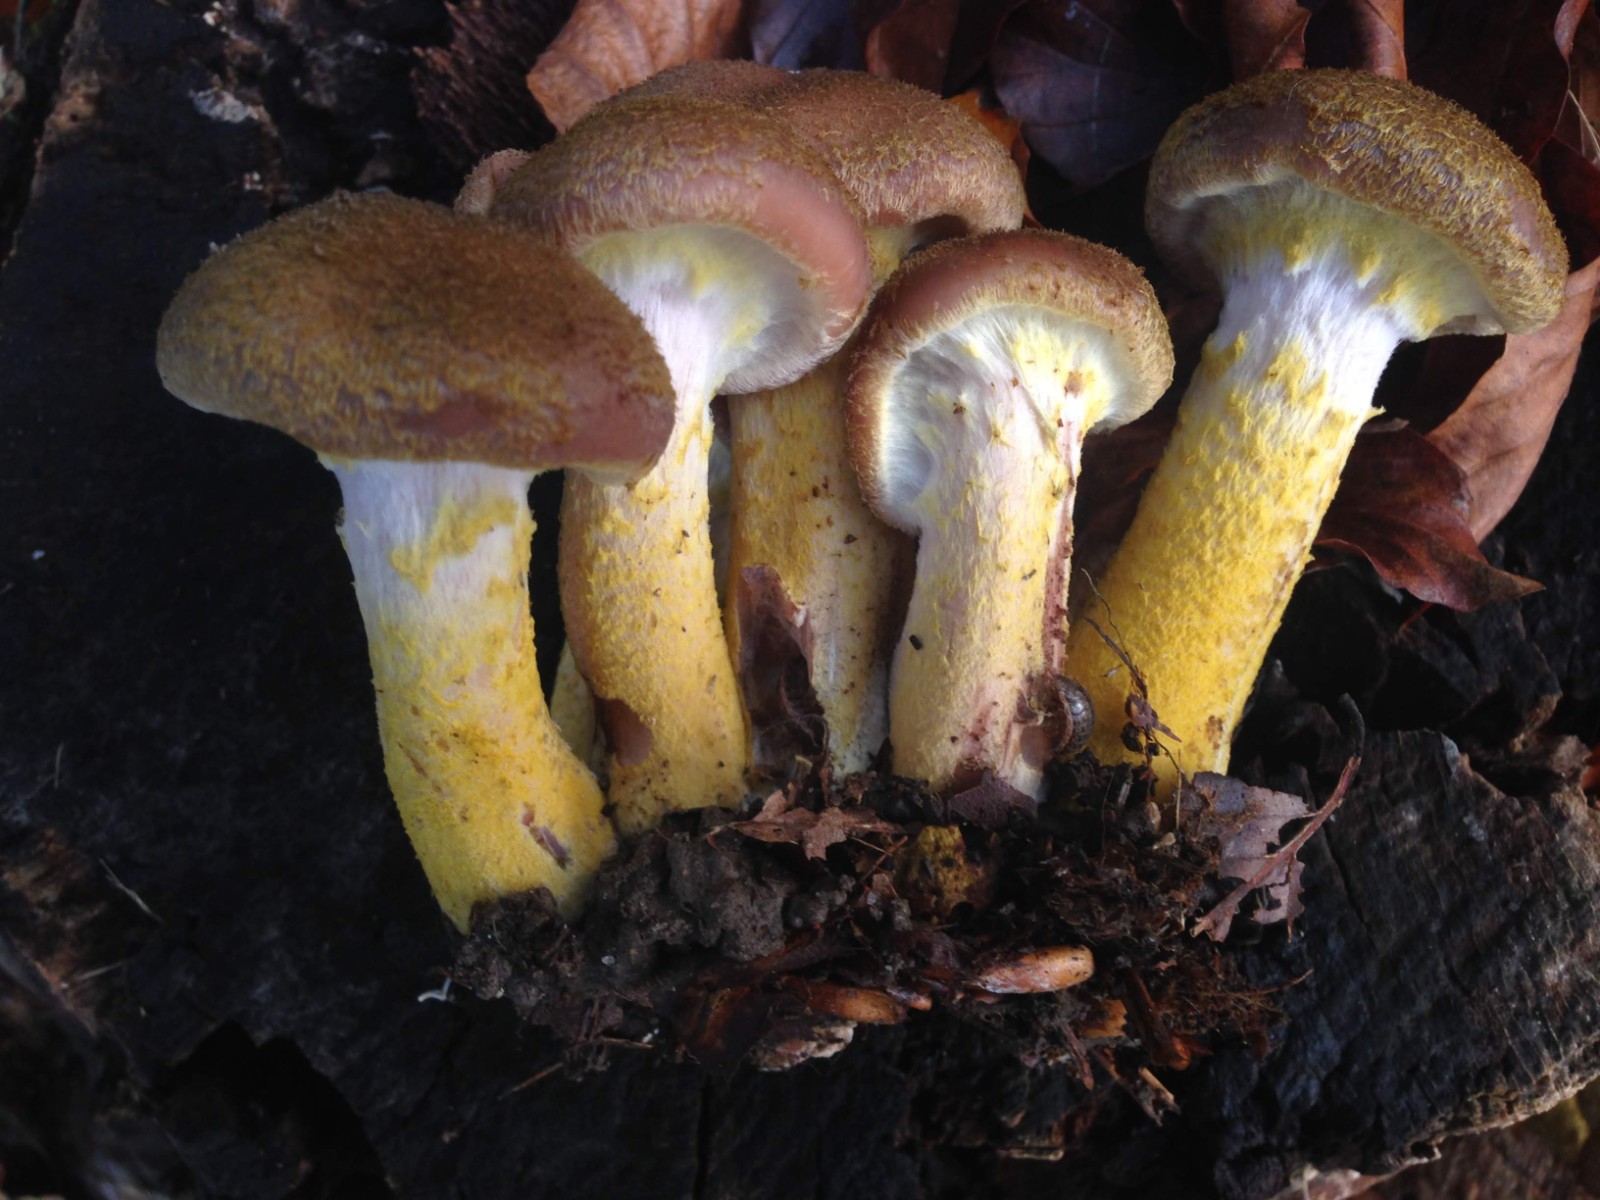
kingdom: Fungi
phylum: Basidiomycota
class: Agaricomycetes
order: Agaricales
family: Physalacriaceae
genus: Armillaria
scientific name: Armillaria lutea
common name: køllestokket honningsvamp
